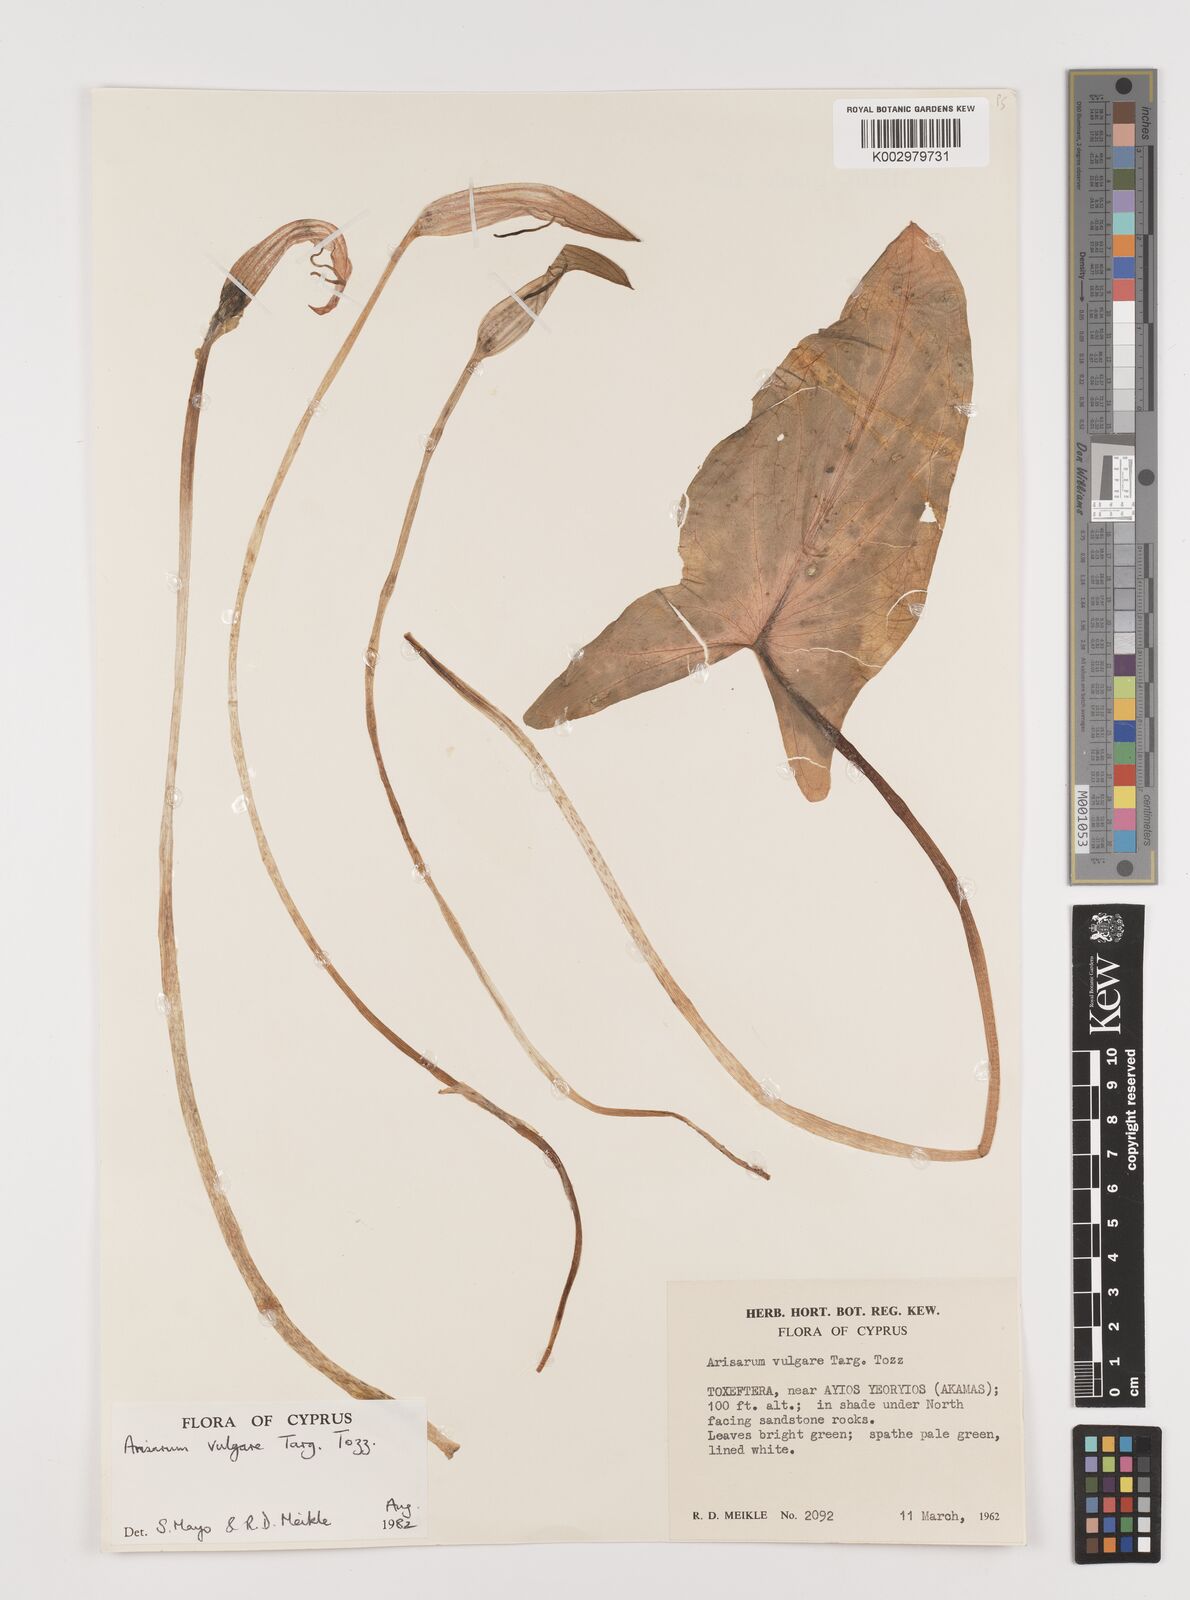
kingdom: Plantae
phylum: Tracheophyta
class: Liliopsida
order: Alismatales
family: Araceae
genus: Arisarum
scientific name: Arisarum vulgare
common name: Common arisarum
